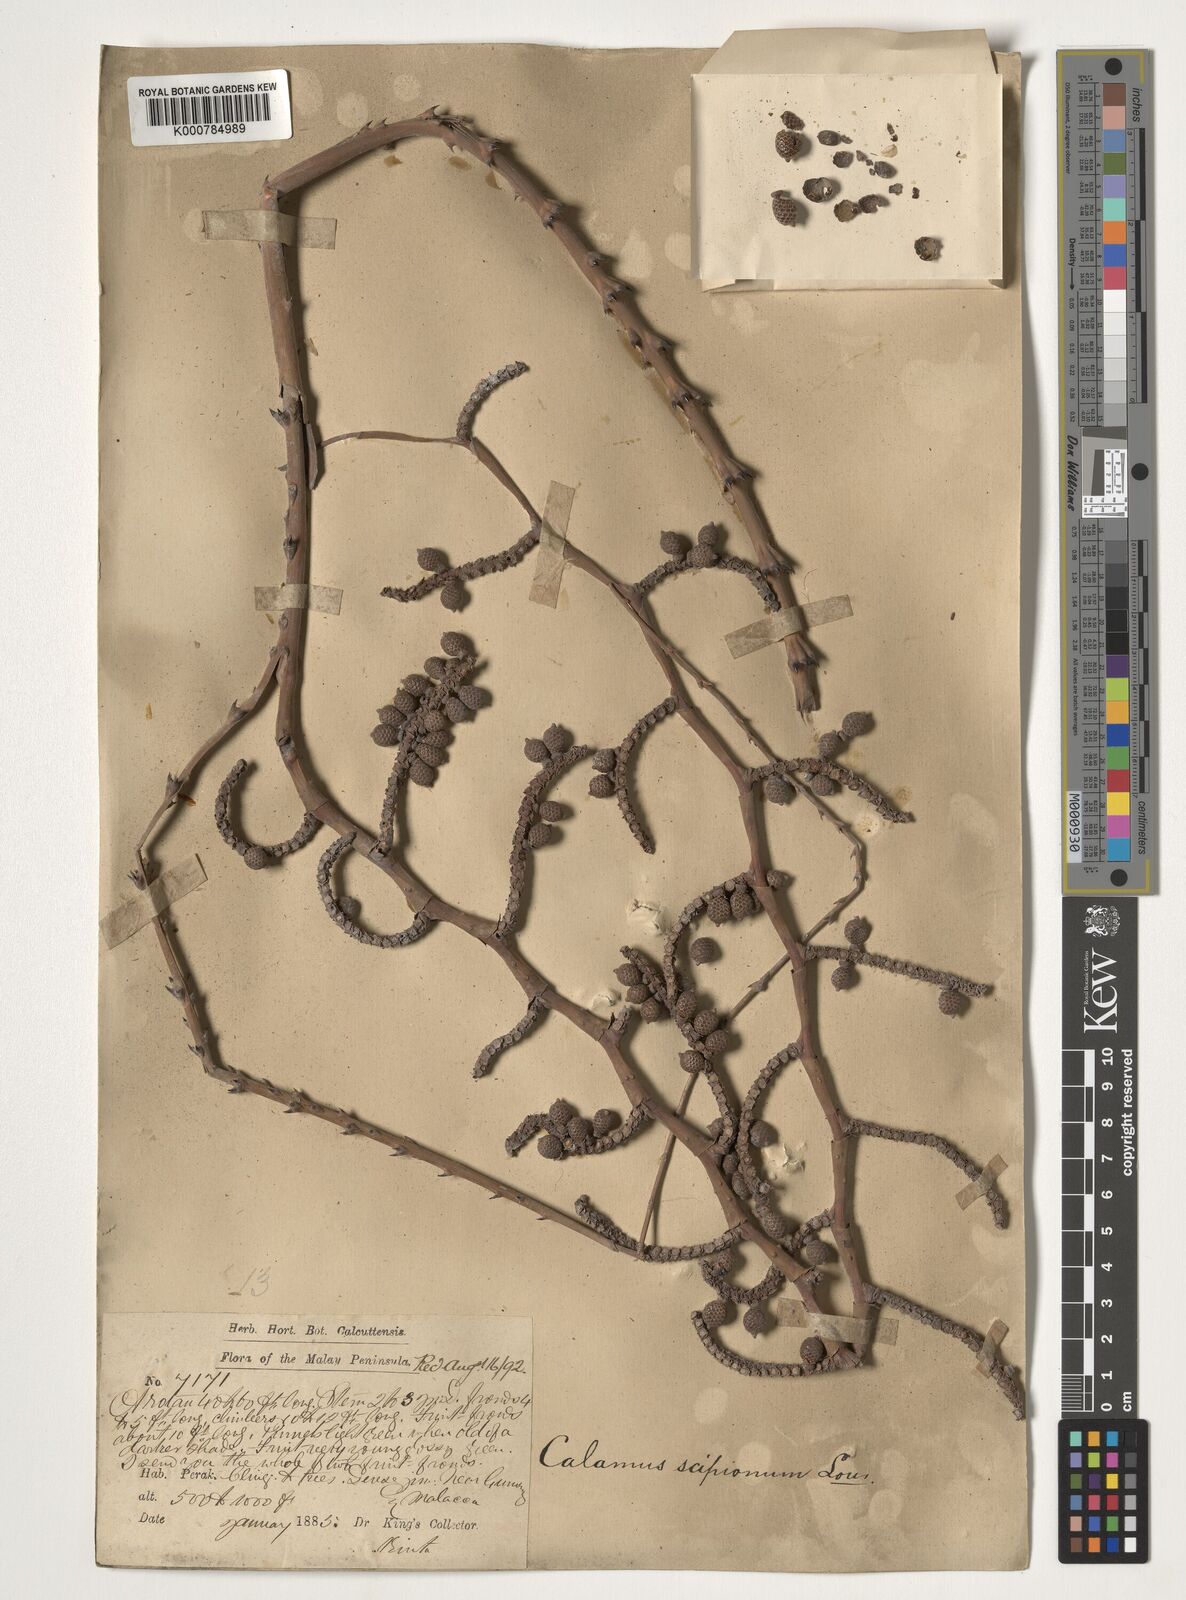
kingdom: Plantae
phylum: Tracheophyta
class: Liliopsida
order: Arecales
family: Arecaceae
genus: Calamus
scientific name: Calamus scipionum
